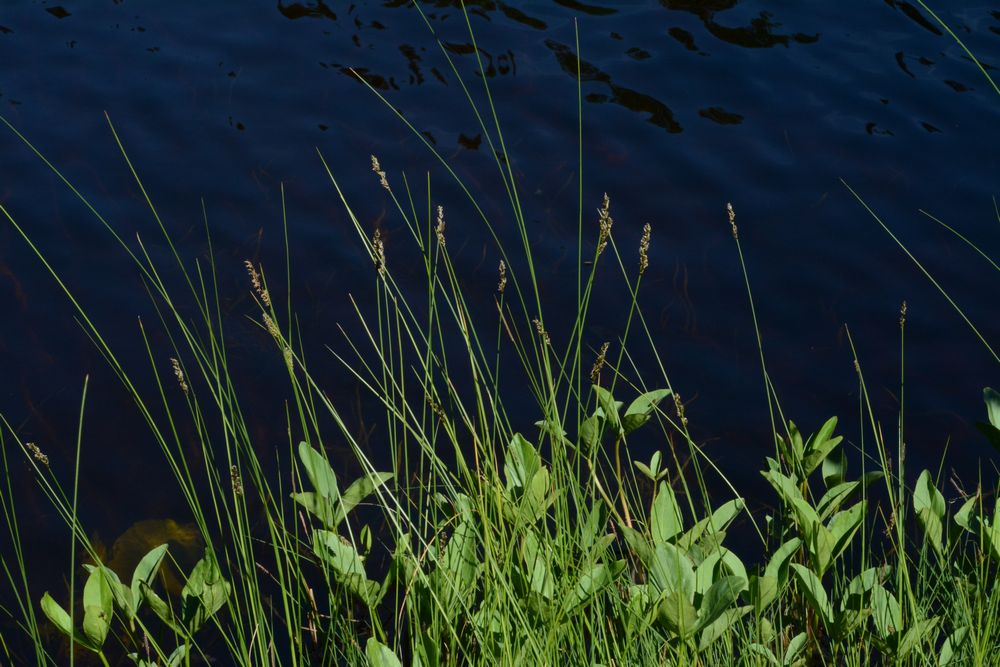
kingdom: Plantae
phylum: Tracheophyta
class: Liliopsida
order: Poales
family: Cyperaceae
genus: Carex
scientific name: Carex diandra
